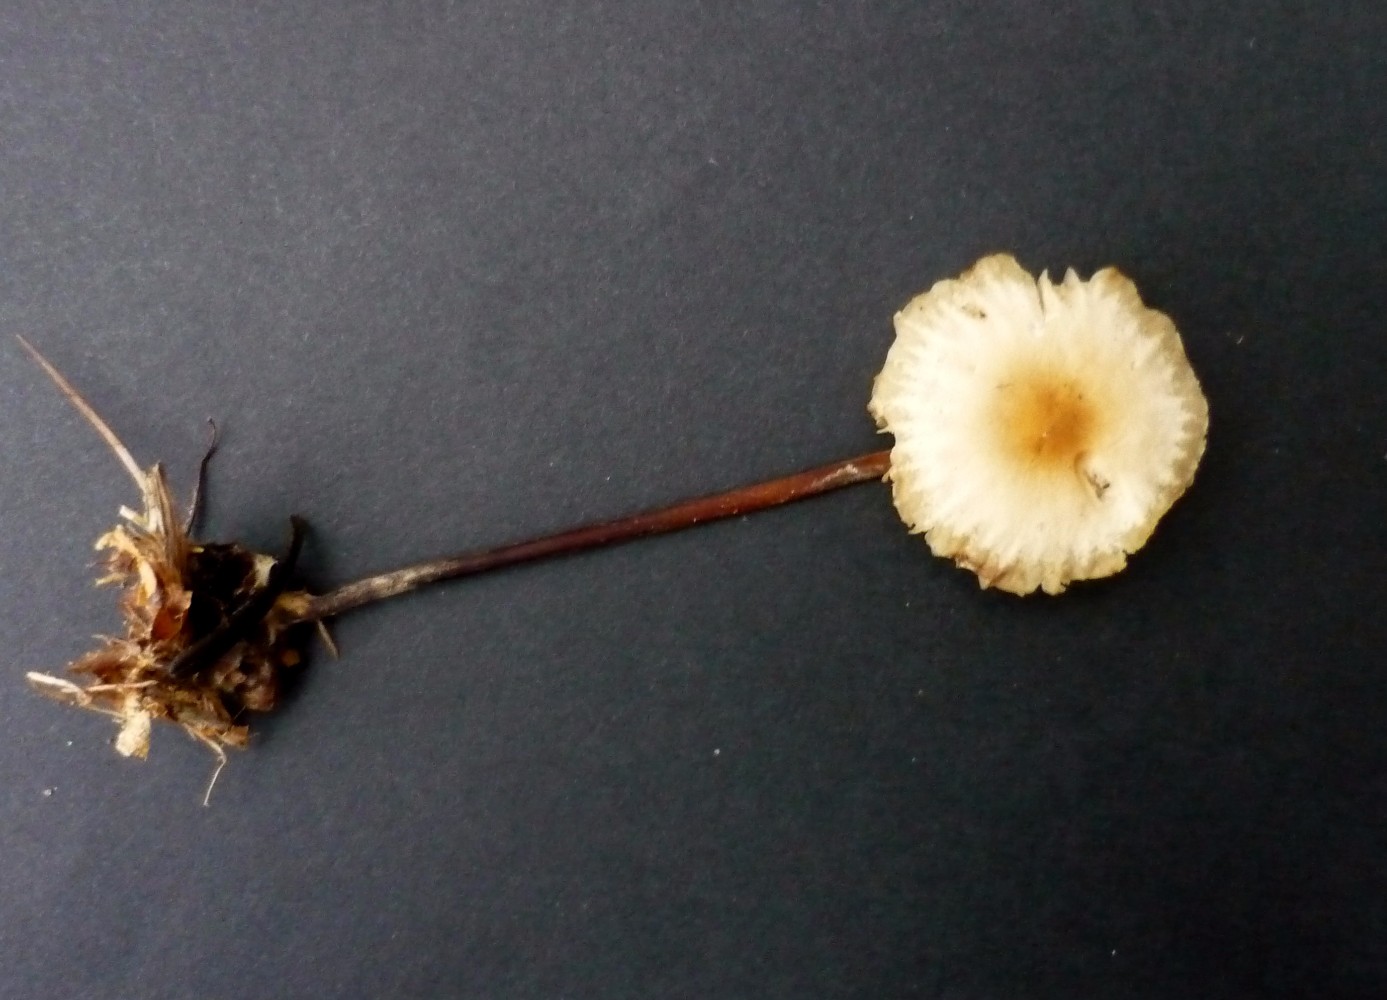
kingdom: Fungi
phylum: Basidiomycota
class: Agaricomycetes
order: Agaricales
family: Marasmiaceae
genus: Marasmius
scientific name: Marasmius torquescens
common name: filtfodet bruskhat
